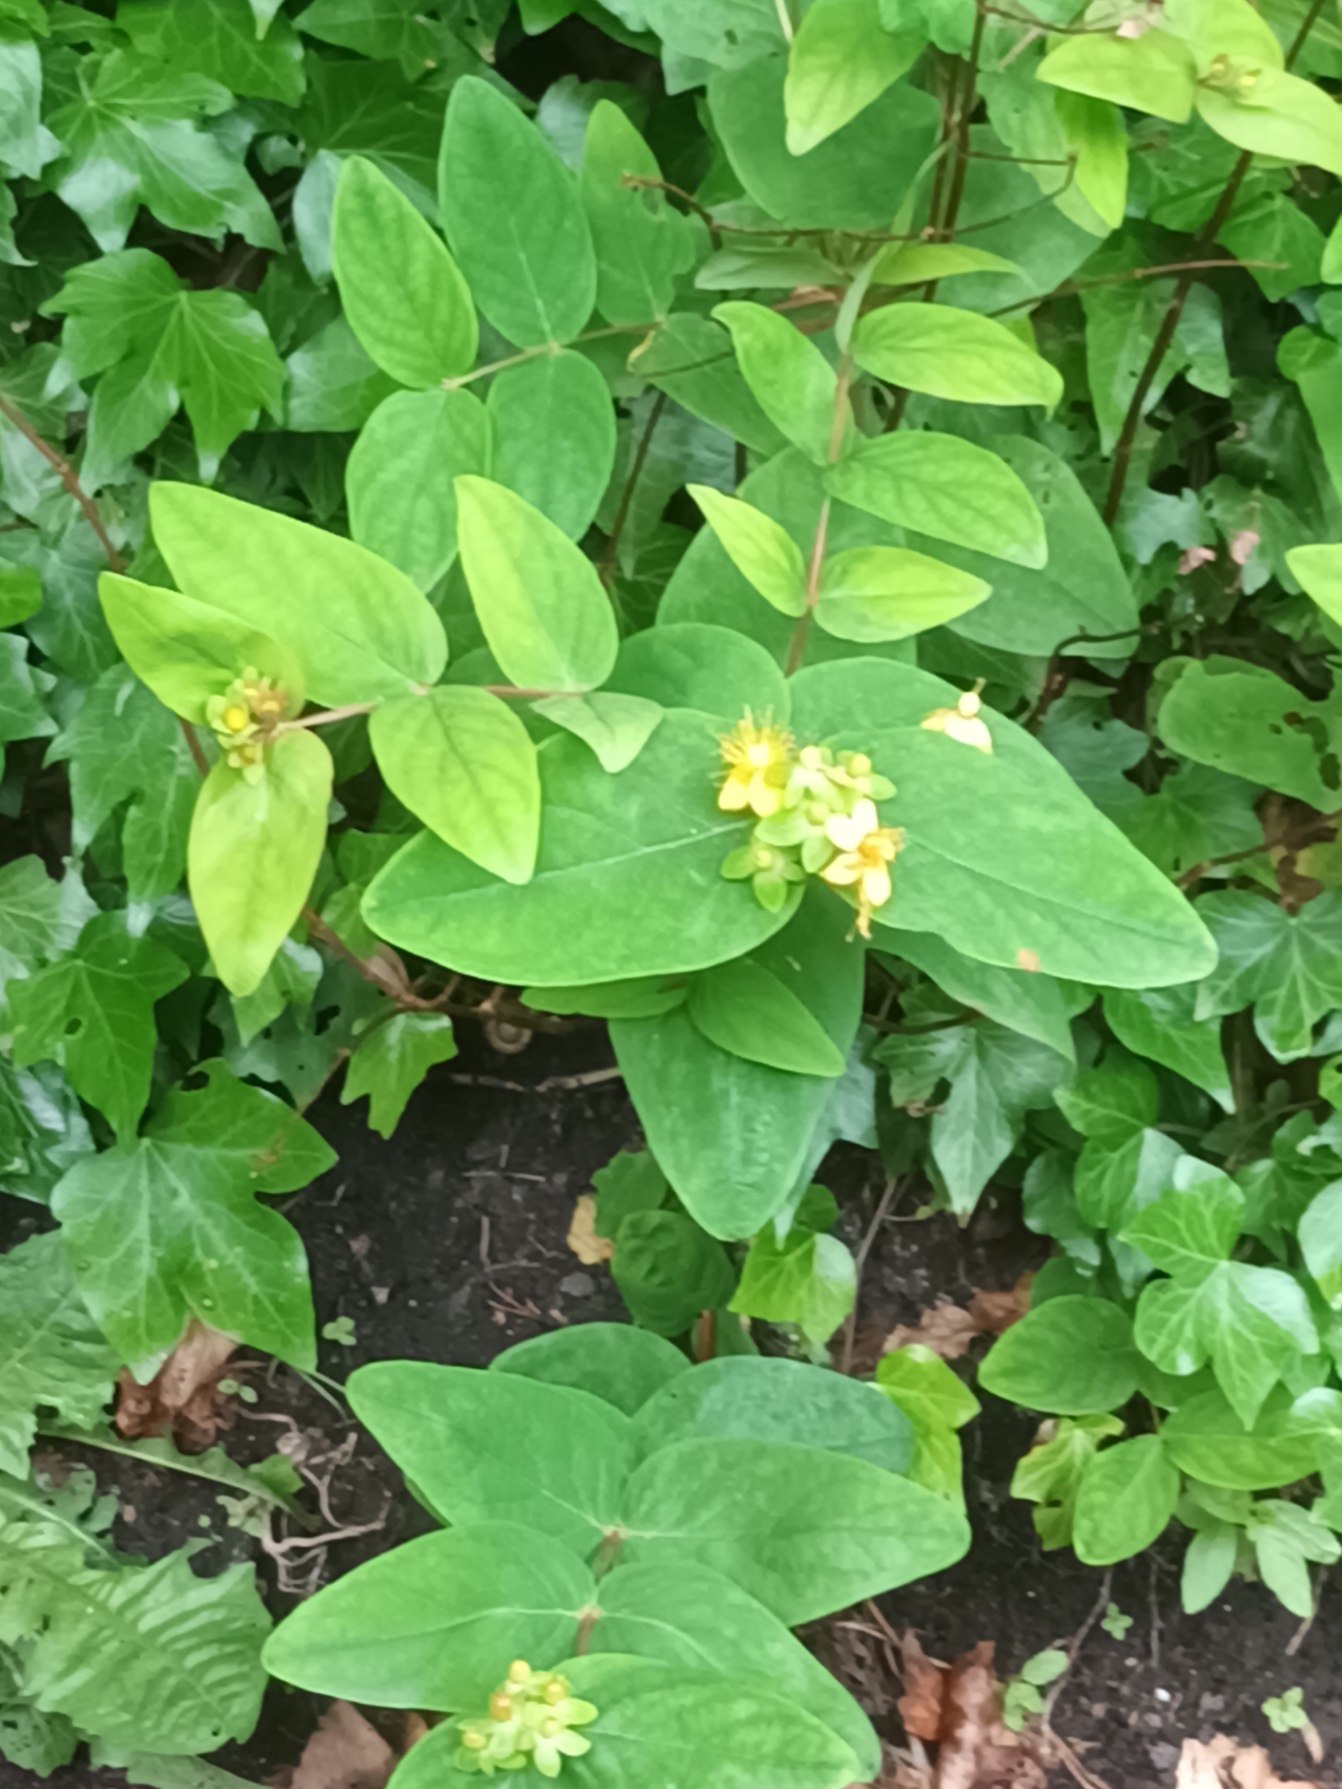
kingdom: Plantae
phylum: Tracheophyta
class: Magnoliopsida
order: Malpighiales
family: Hypericaceae
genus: Hypericum
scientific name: Hypericum androsaemum
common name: Bær-perikon
